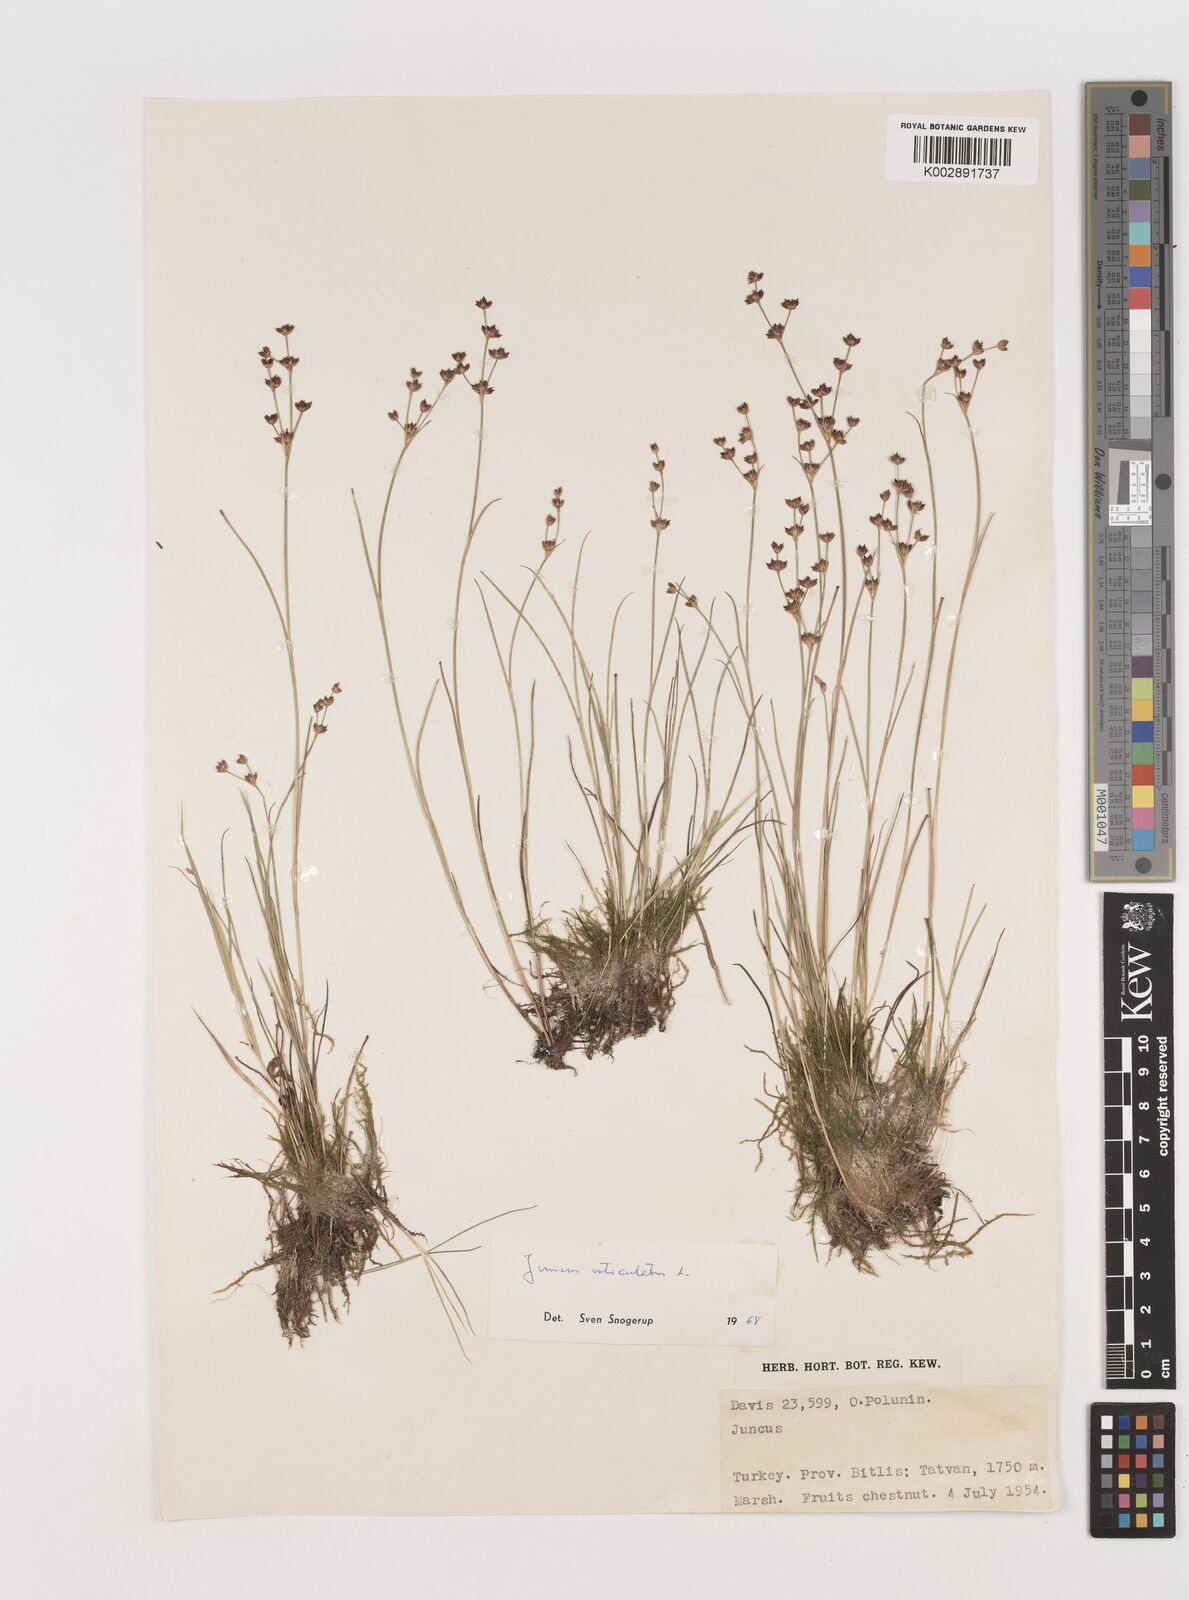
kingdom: Plantae
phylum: Tracheophyta
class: Liliopsida
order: Poales
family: Juncaceae
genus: Juncus
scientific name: Juncus articulatus
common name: Jointed rush
